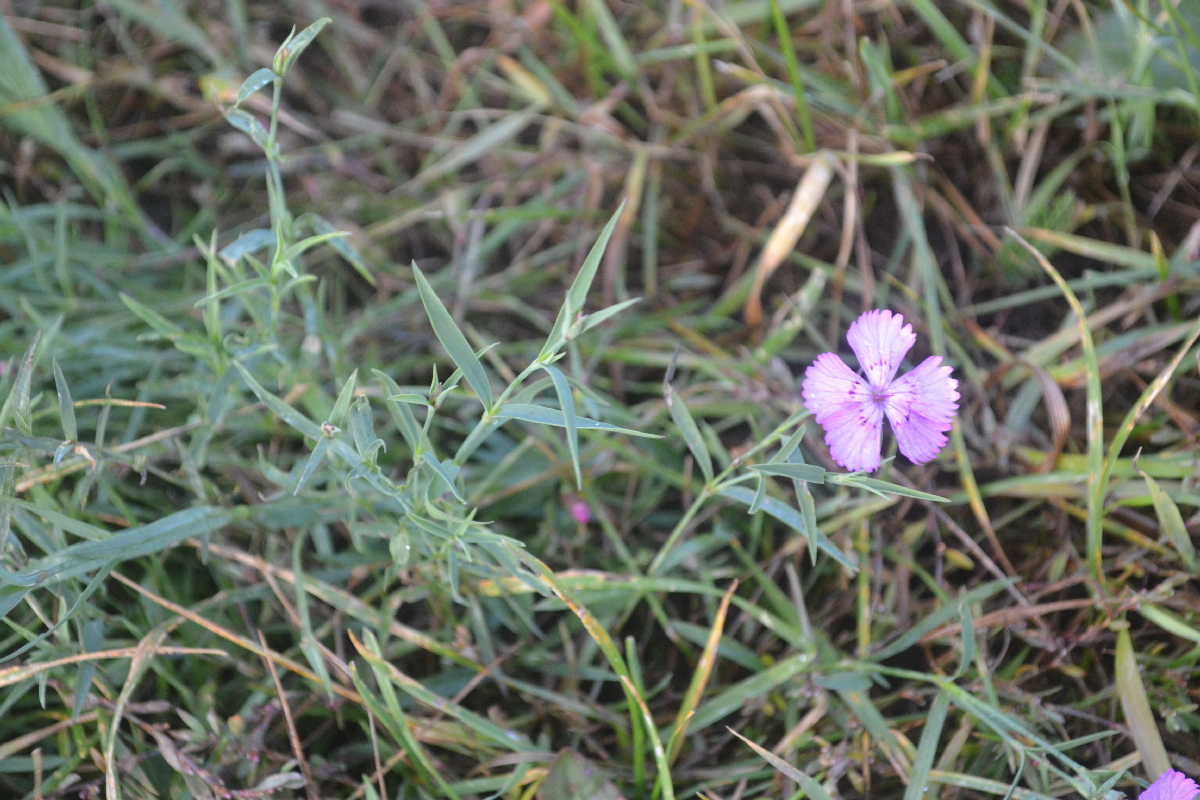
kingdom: Plantae
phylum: Tracheophyta
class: Magnoliopsida
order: Caryophyllales
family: Caryophyllaceae
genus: Dianthus
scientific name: Dianthus deltoides
